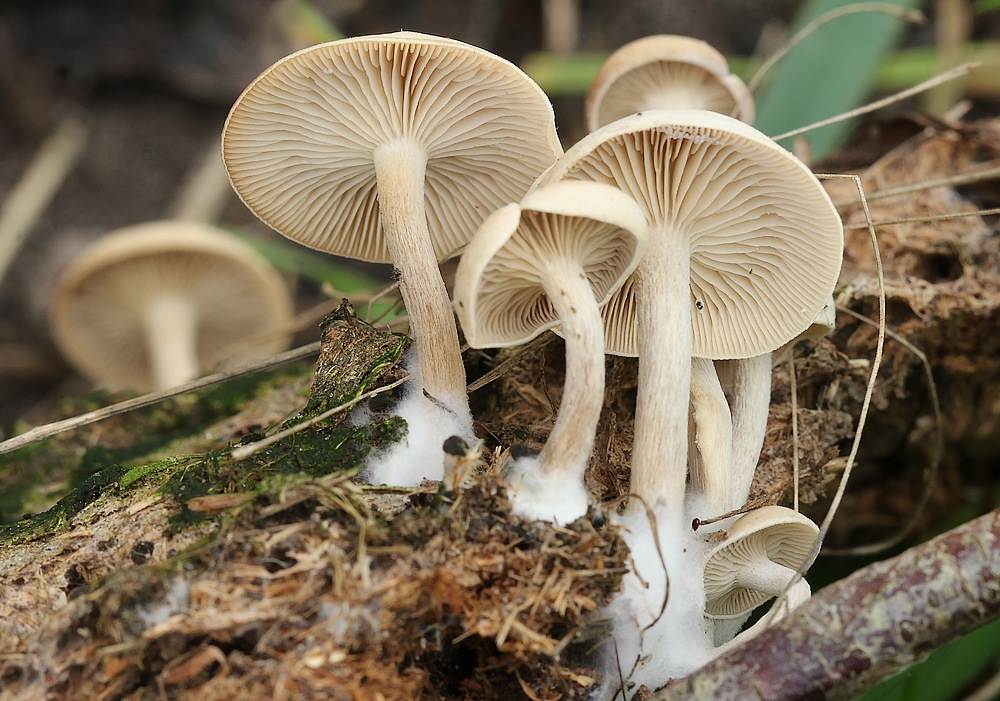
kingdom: Fungi
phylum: Basidiomycota
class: Agaricomycetes
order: Agaricales
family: Tricholomataceae
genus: Clitocybe
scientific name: Clitocybe amarescens
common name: gødnings-tragthat
